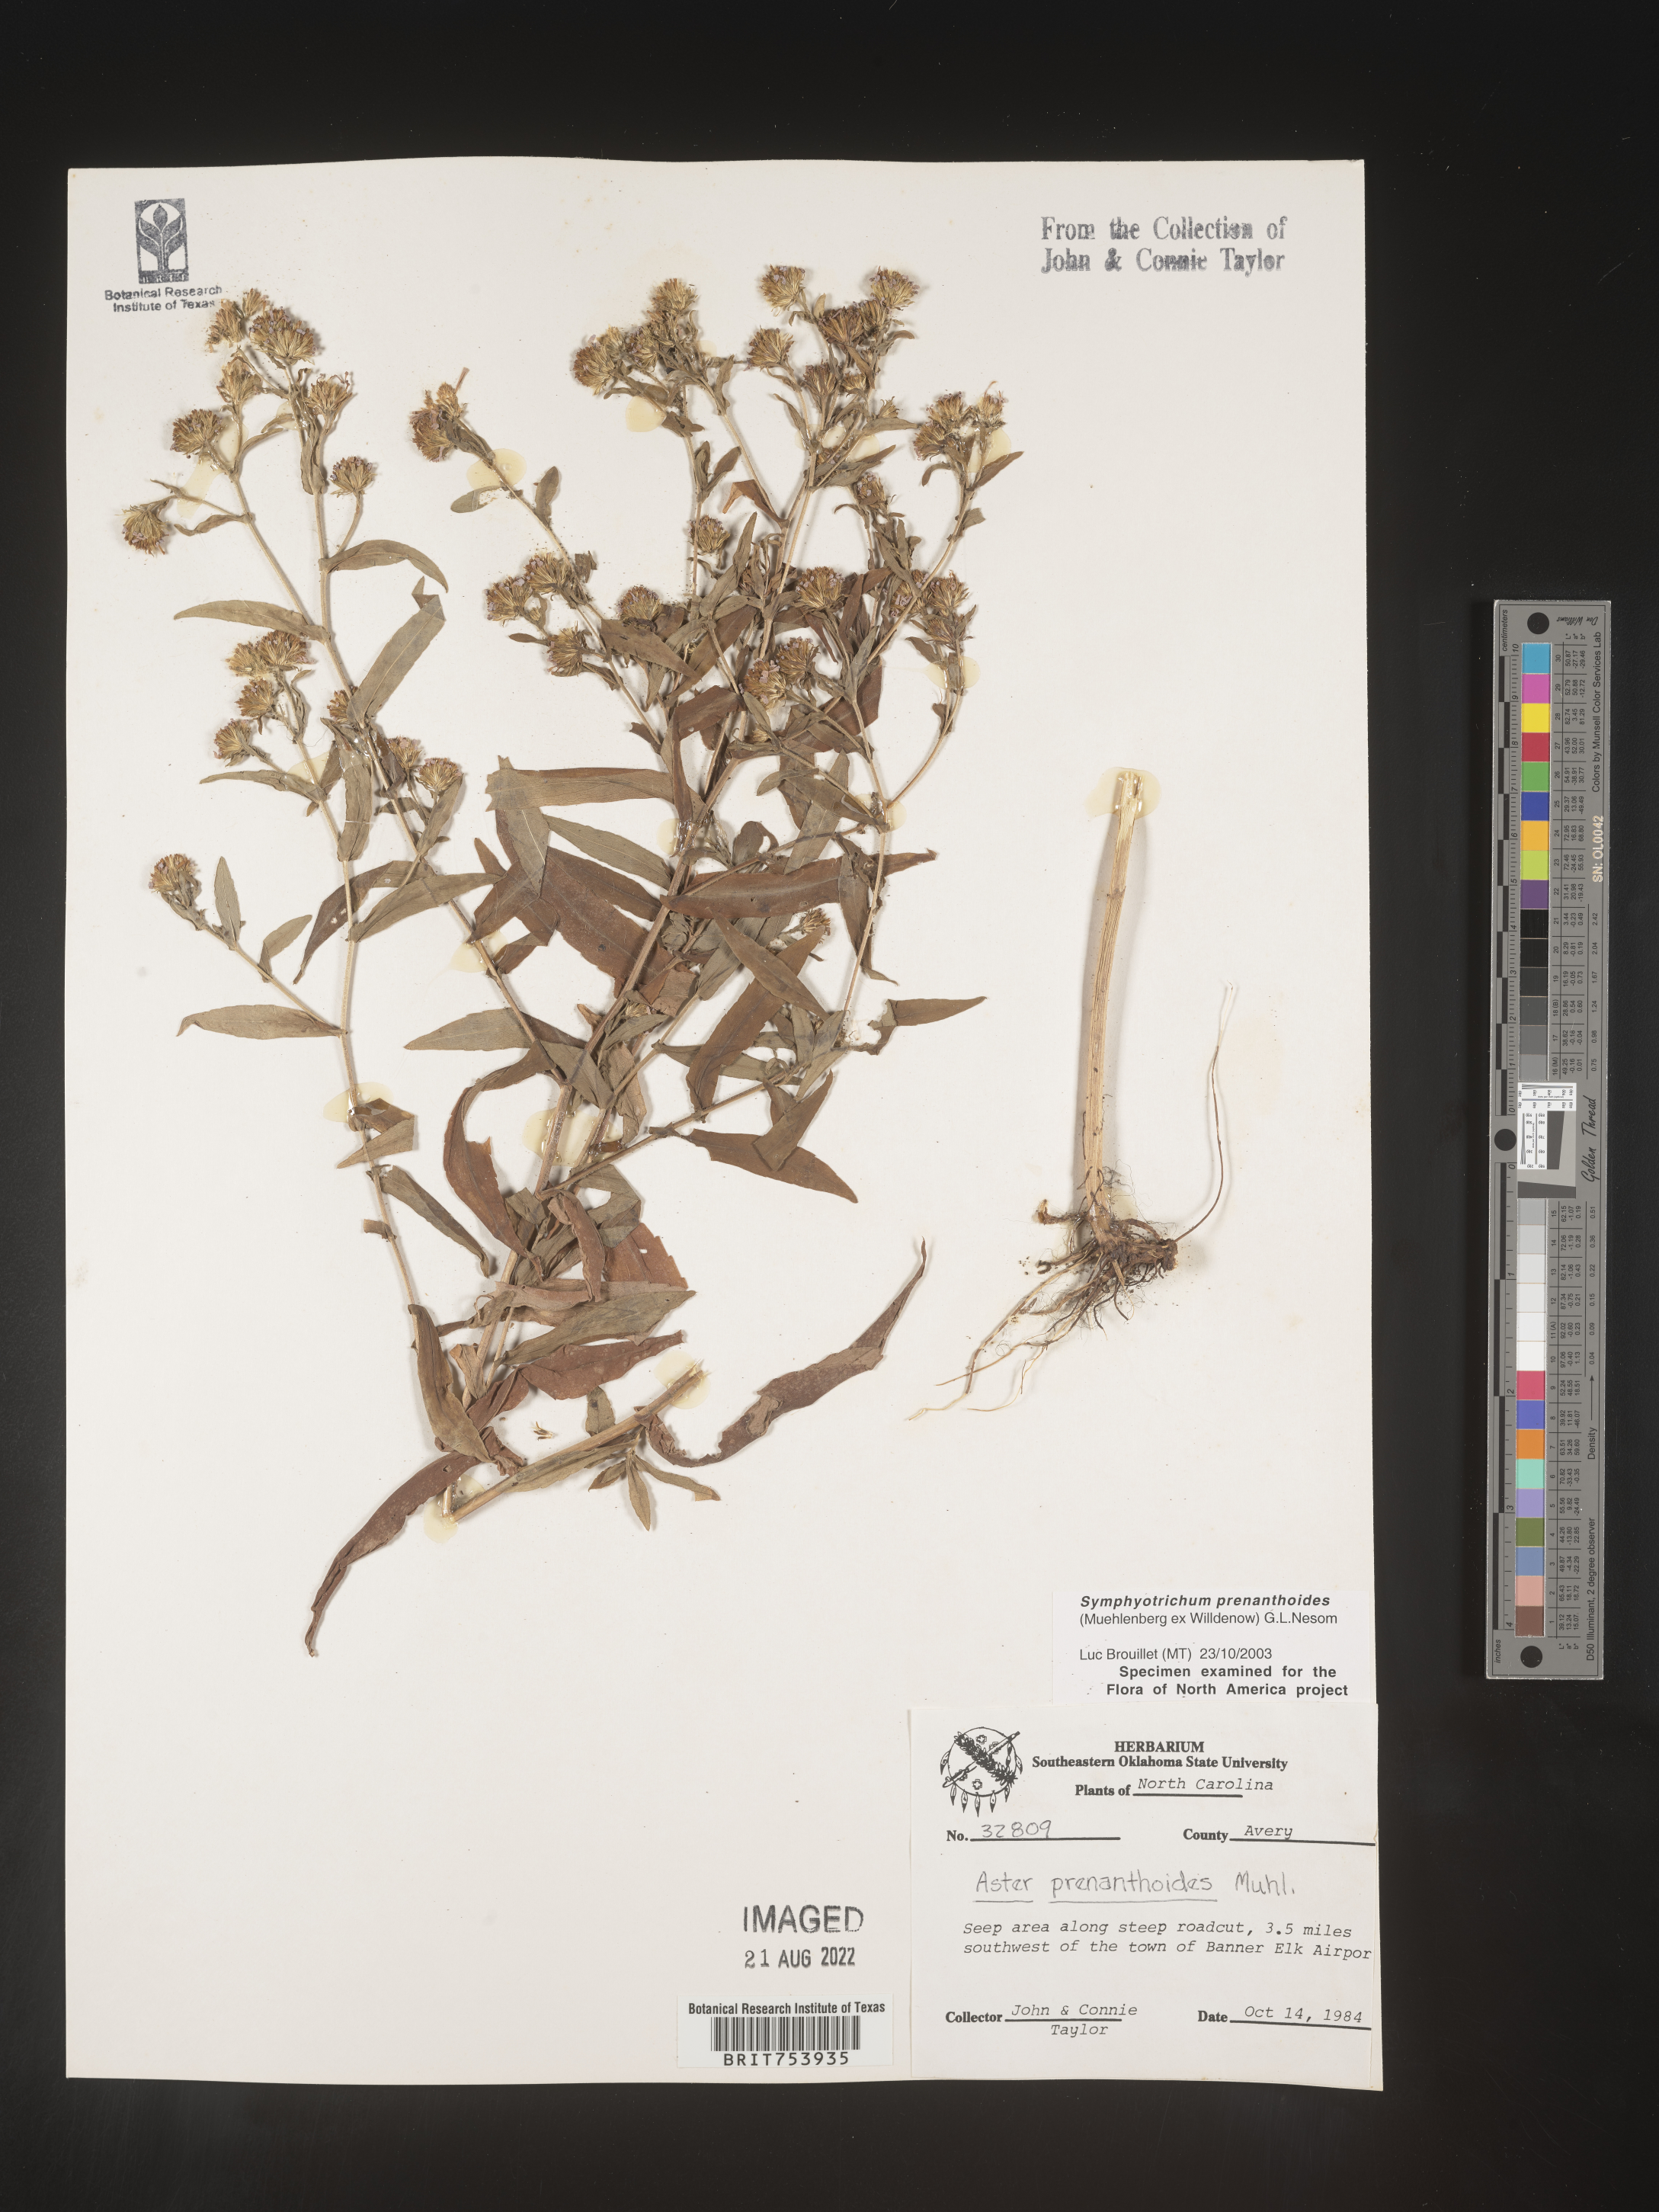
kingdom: Plantae
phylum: Tracheophyta
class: Magnoliopsida
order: Asterales
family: Asteraceae
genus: Symphyotrichum
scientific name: Symphyotrichum prenanthoides
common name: Crooked-stem aster
